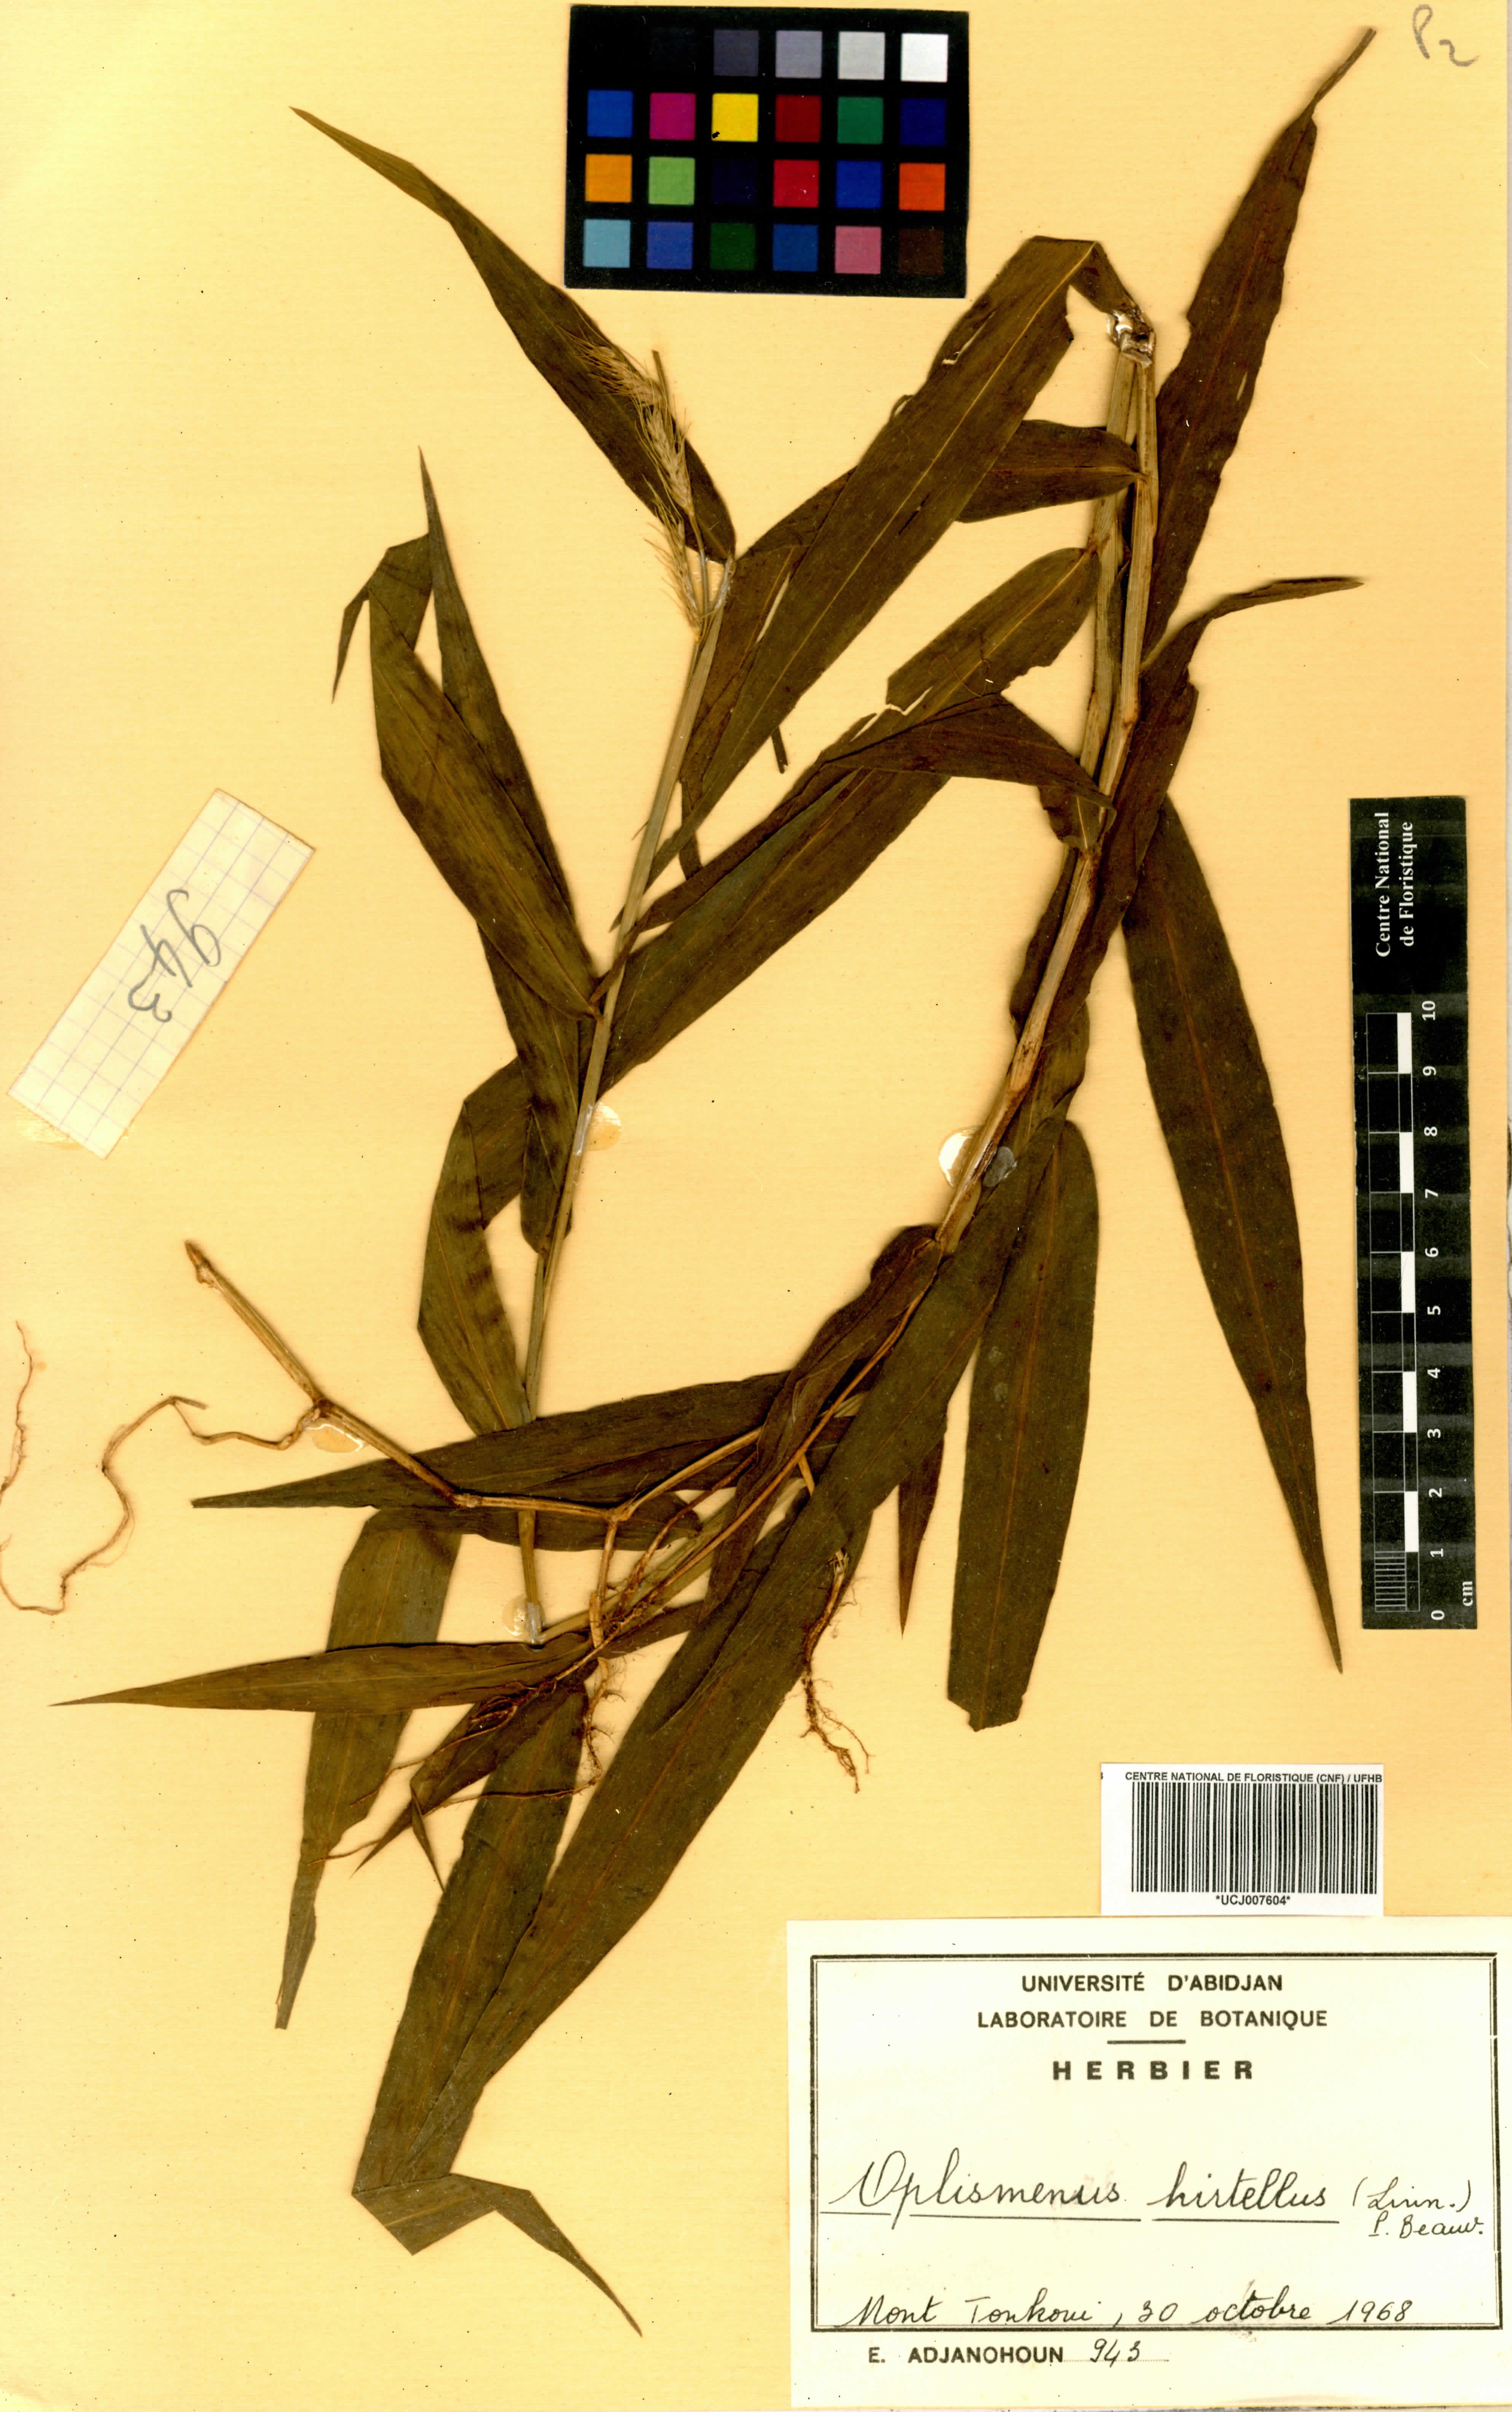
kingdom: Plantae
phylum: Tracheophyta
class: Liliopsida
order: Poales
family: Poaceae
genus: Oplismenus
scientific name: Oplismenus hirtellus
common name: Basketgrass
